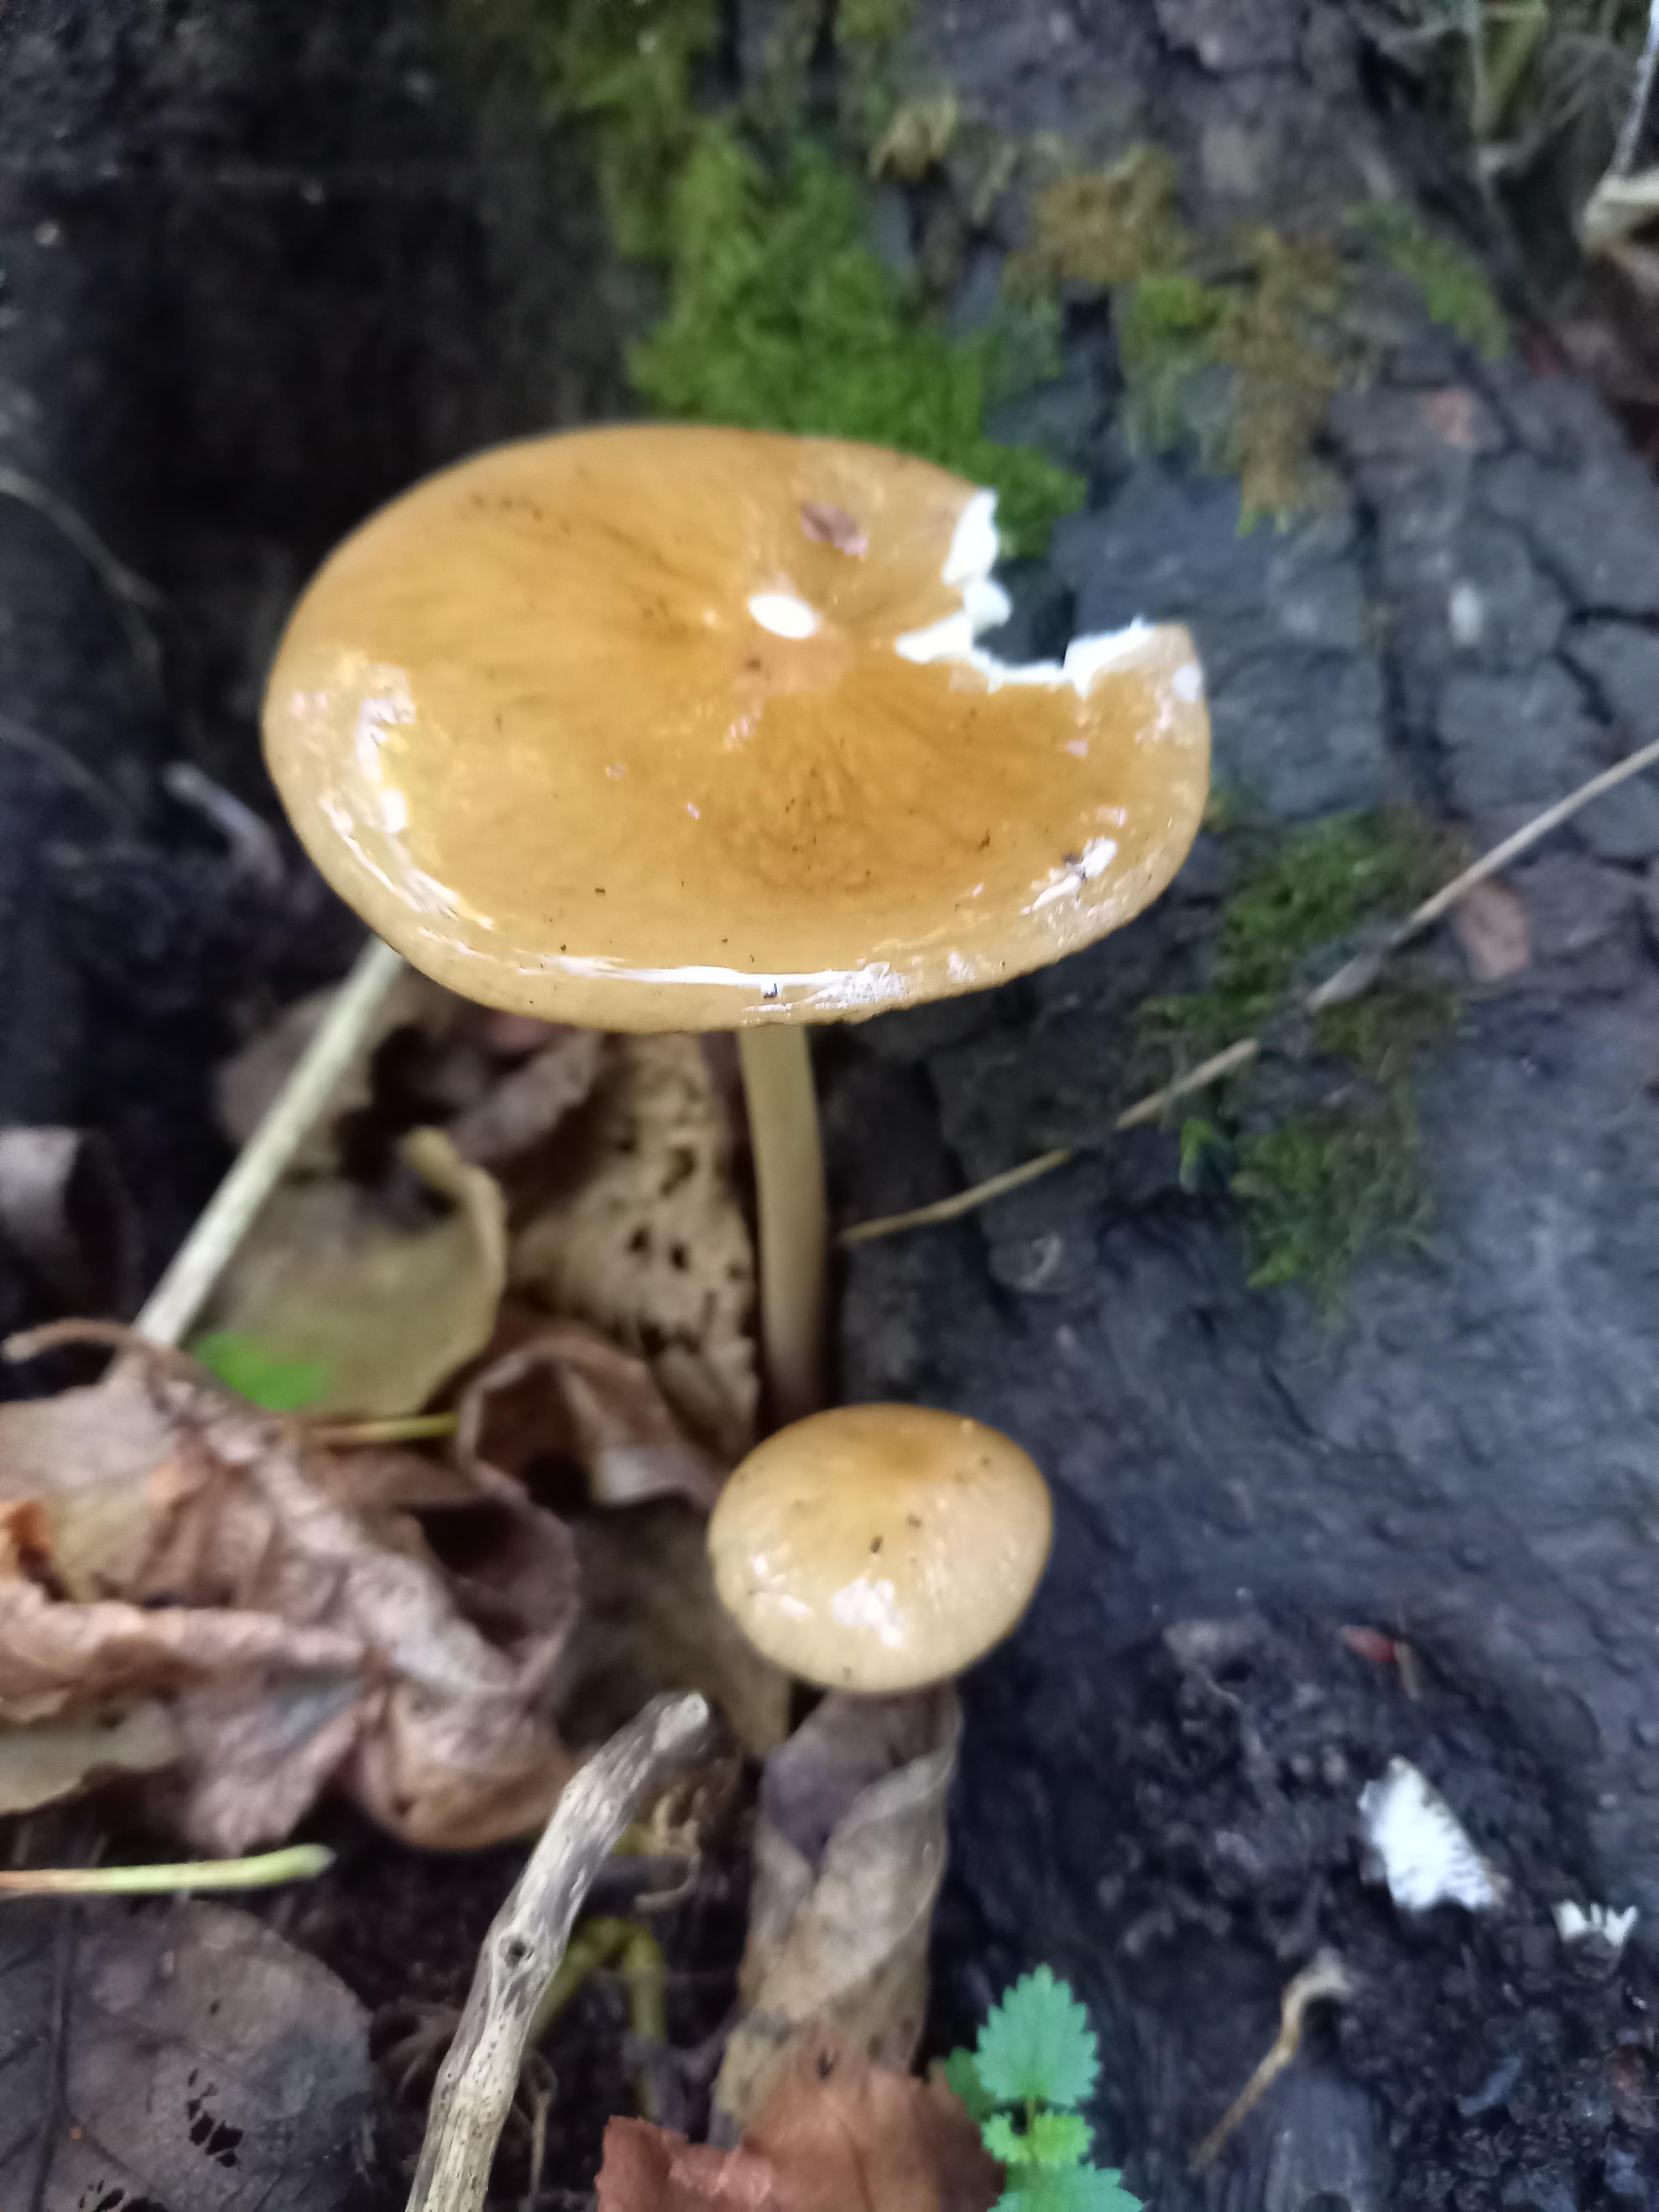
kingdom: Fungi
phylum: Basidiomycota
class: Agaricomycetes
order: Agaricales
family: Physalacriaceae
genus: Hymenopellis
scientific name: Hymenopellis radicata
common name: almindelig pælerodshat
